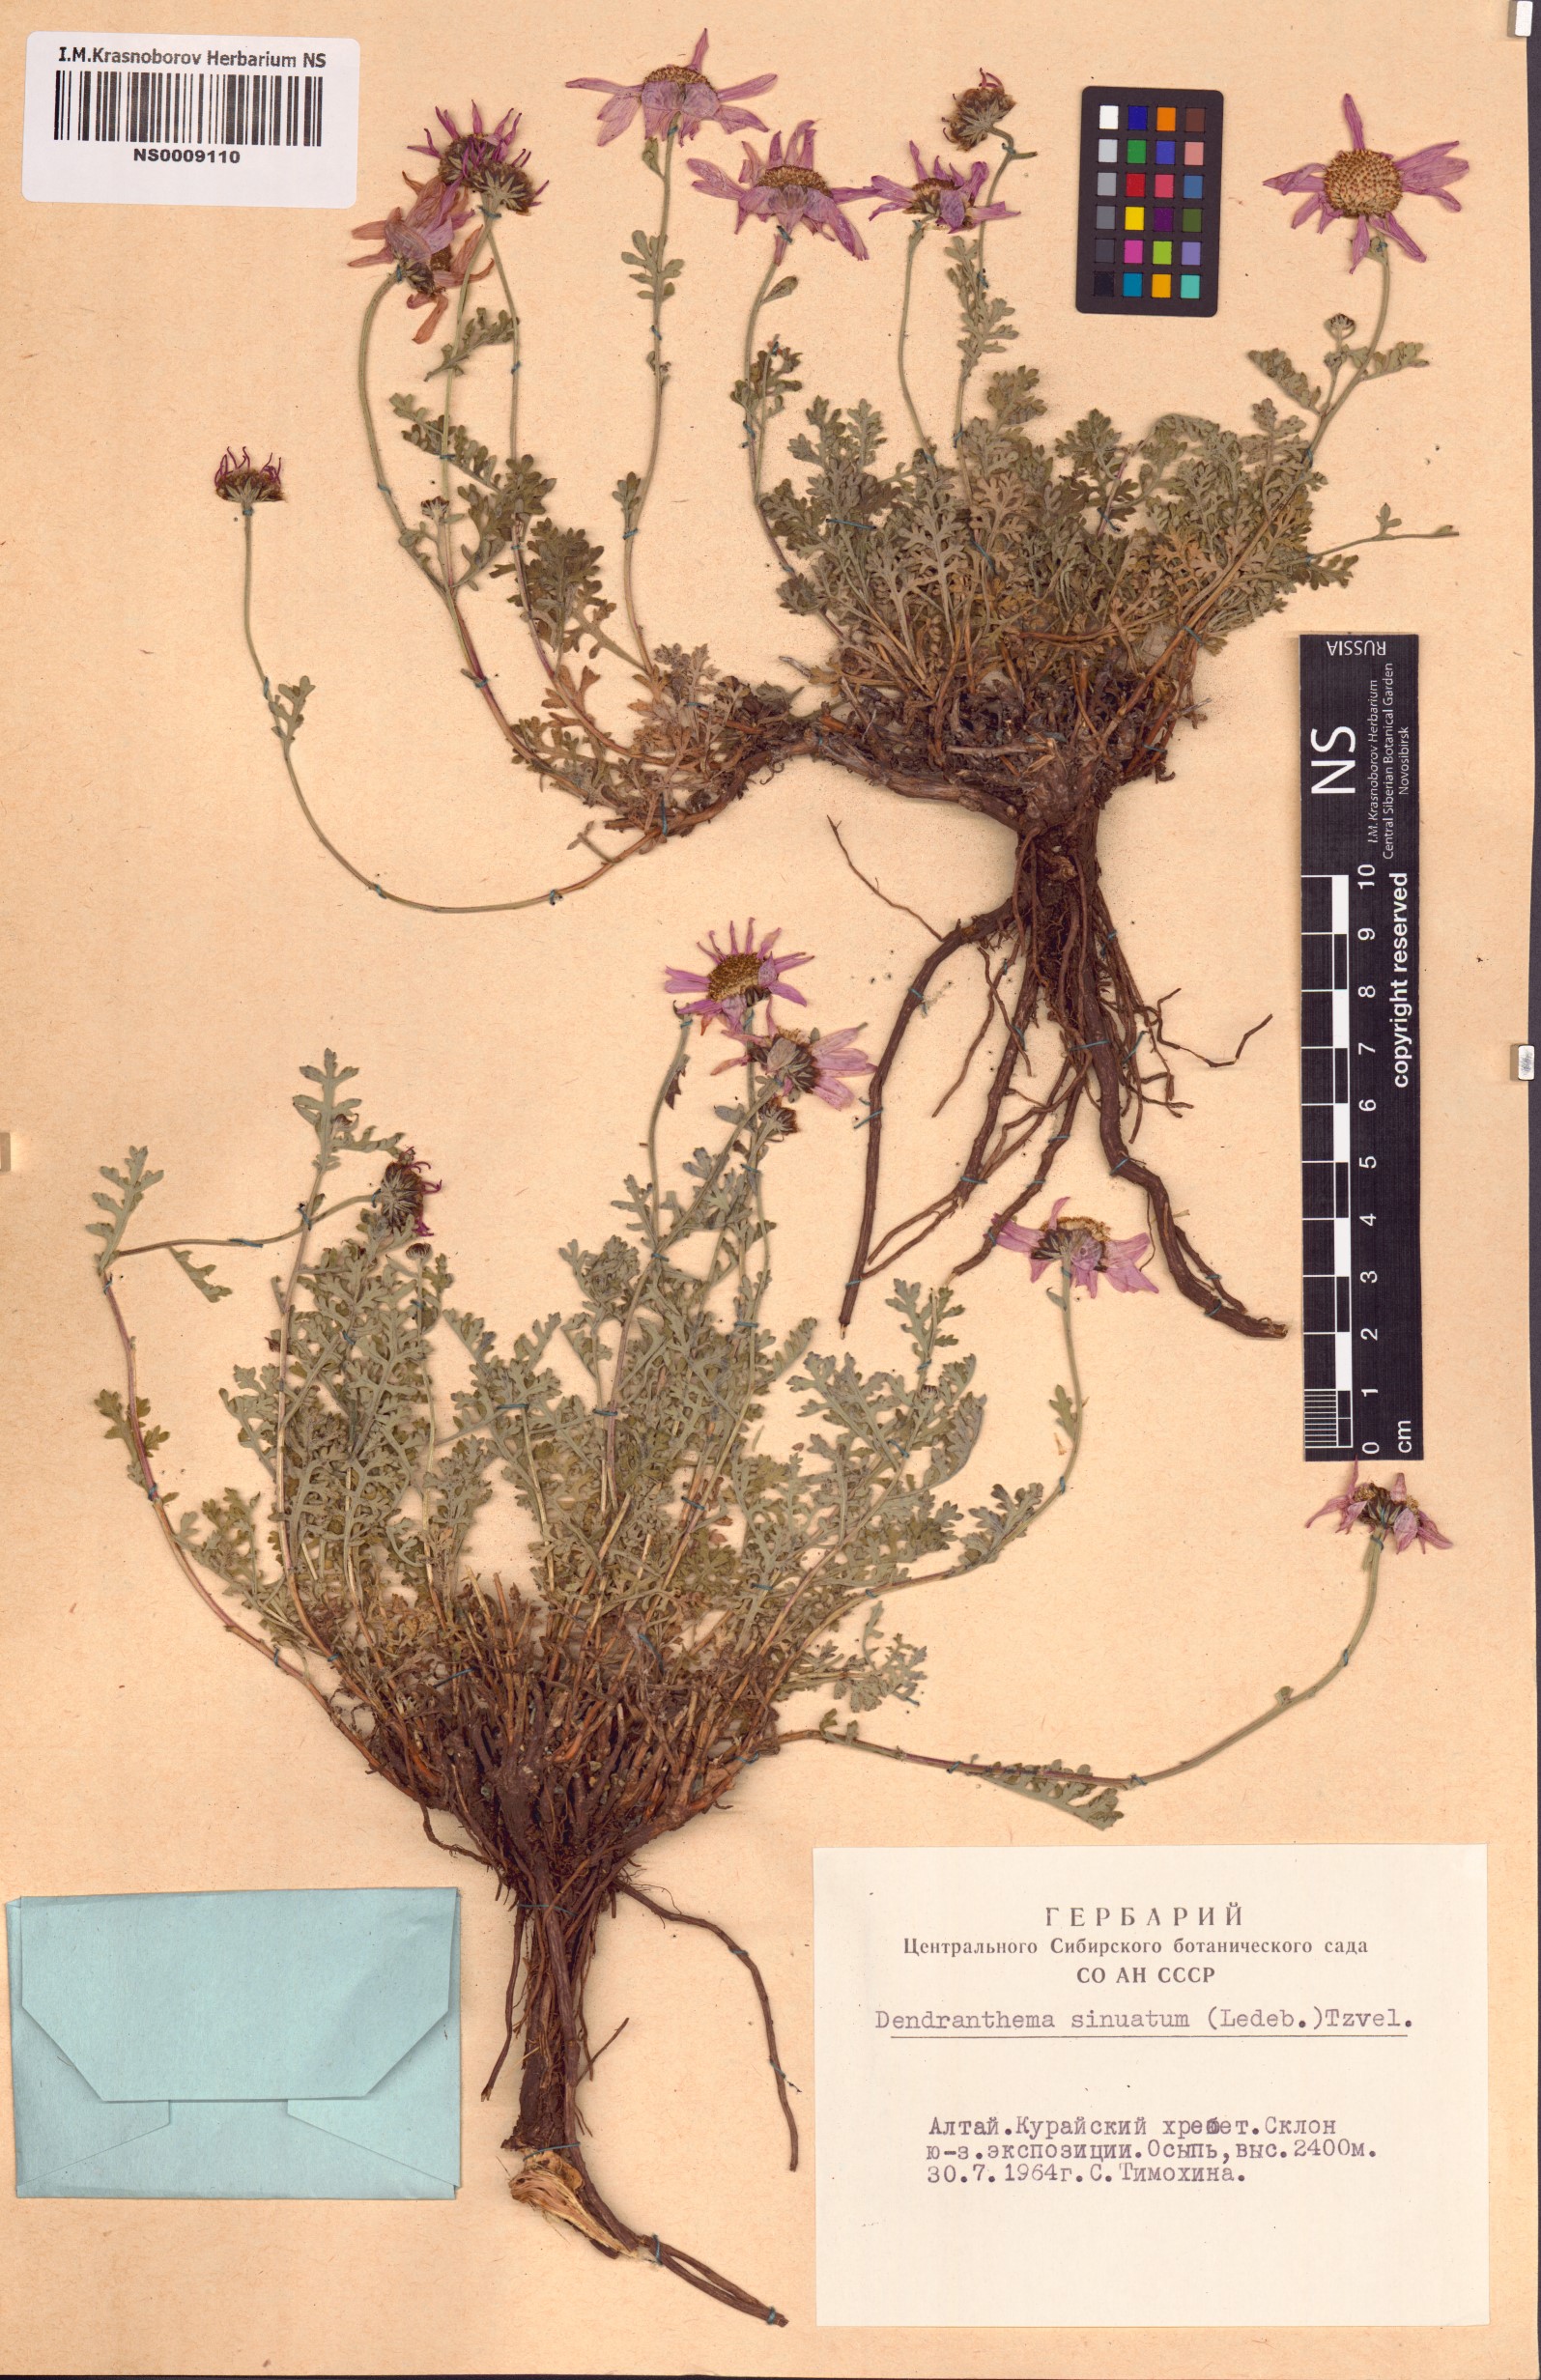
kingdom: Plantae
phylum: Tracheophyta
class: Magnoliopsida
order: Asterales
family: Asteraceae
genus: Chrysanthemum
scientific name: Chrysanthemum sinuatum
